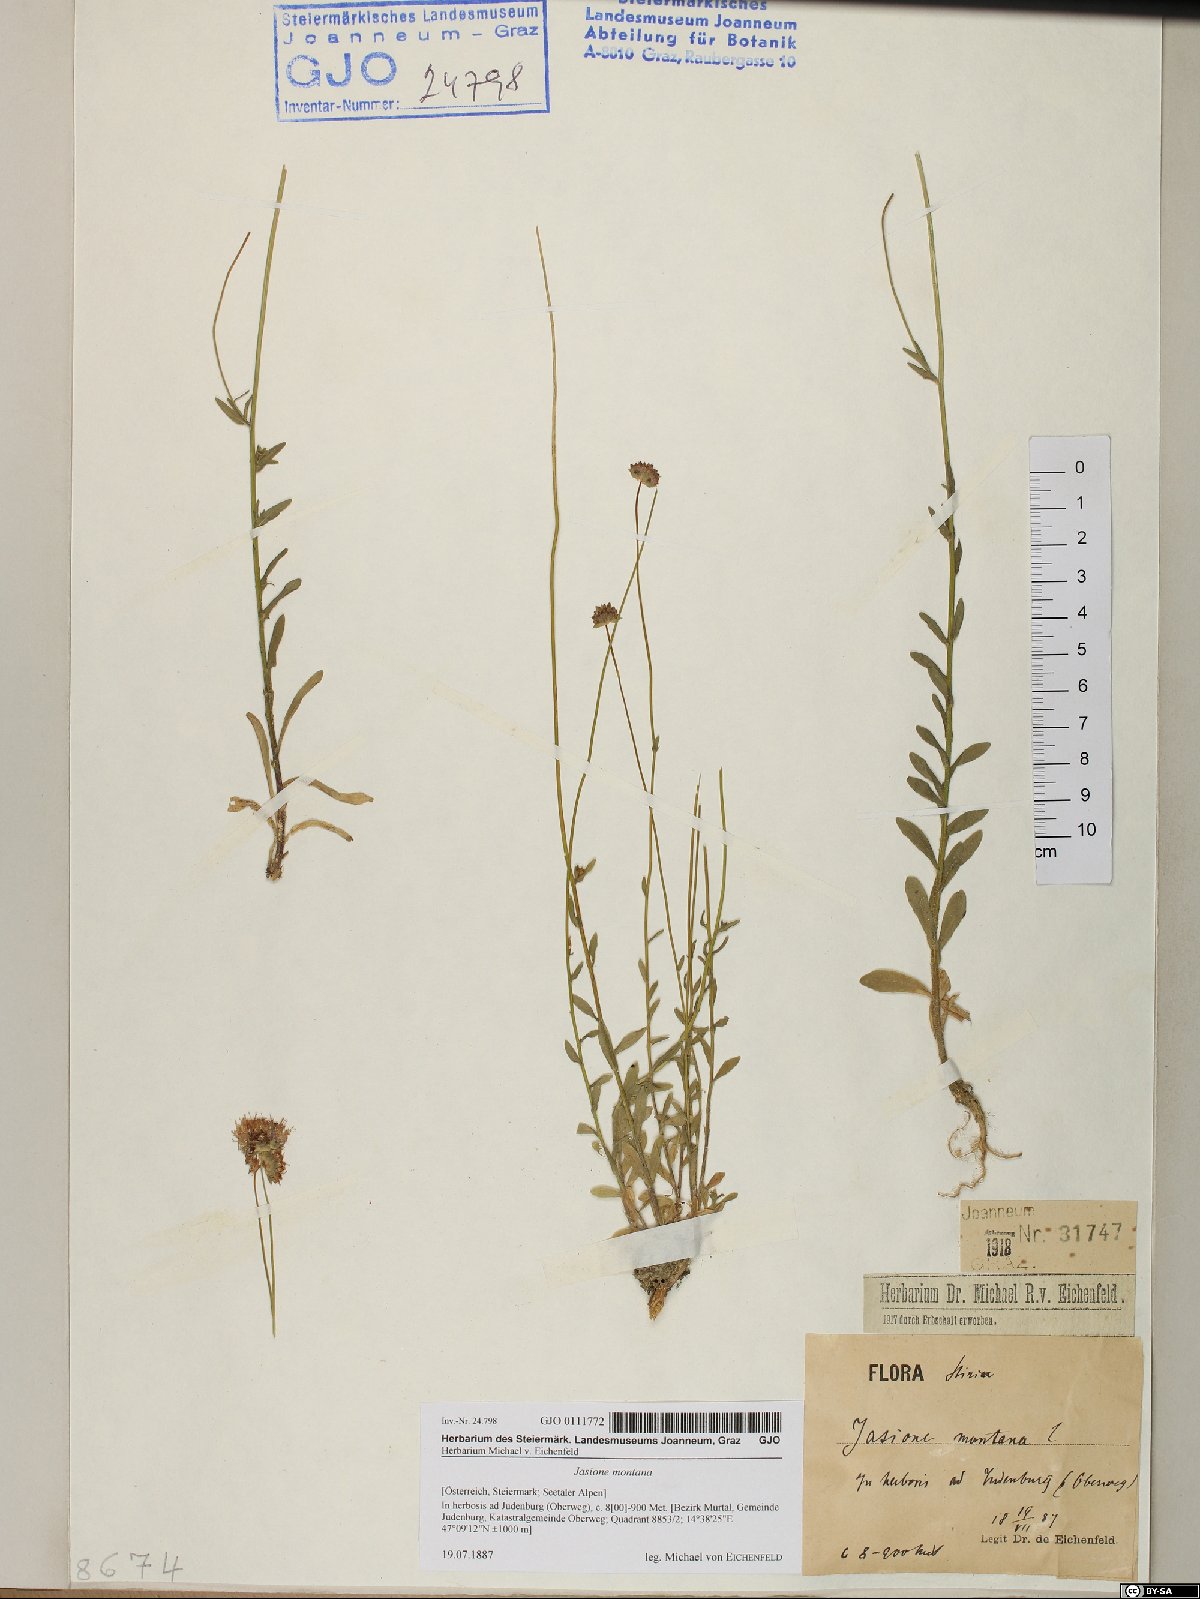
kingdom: Plantae
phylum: Tracheophyta
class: Magnoliopsida
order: Asterales
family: Campanulaceae
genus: Jasione
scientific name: Jasione montana
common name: Sheep's-bit
